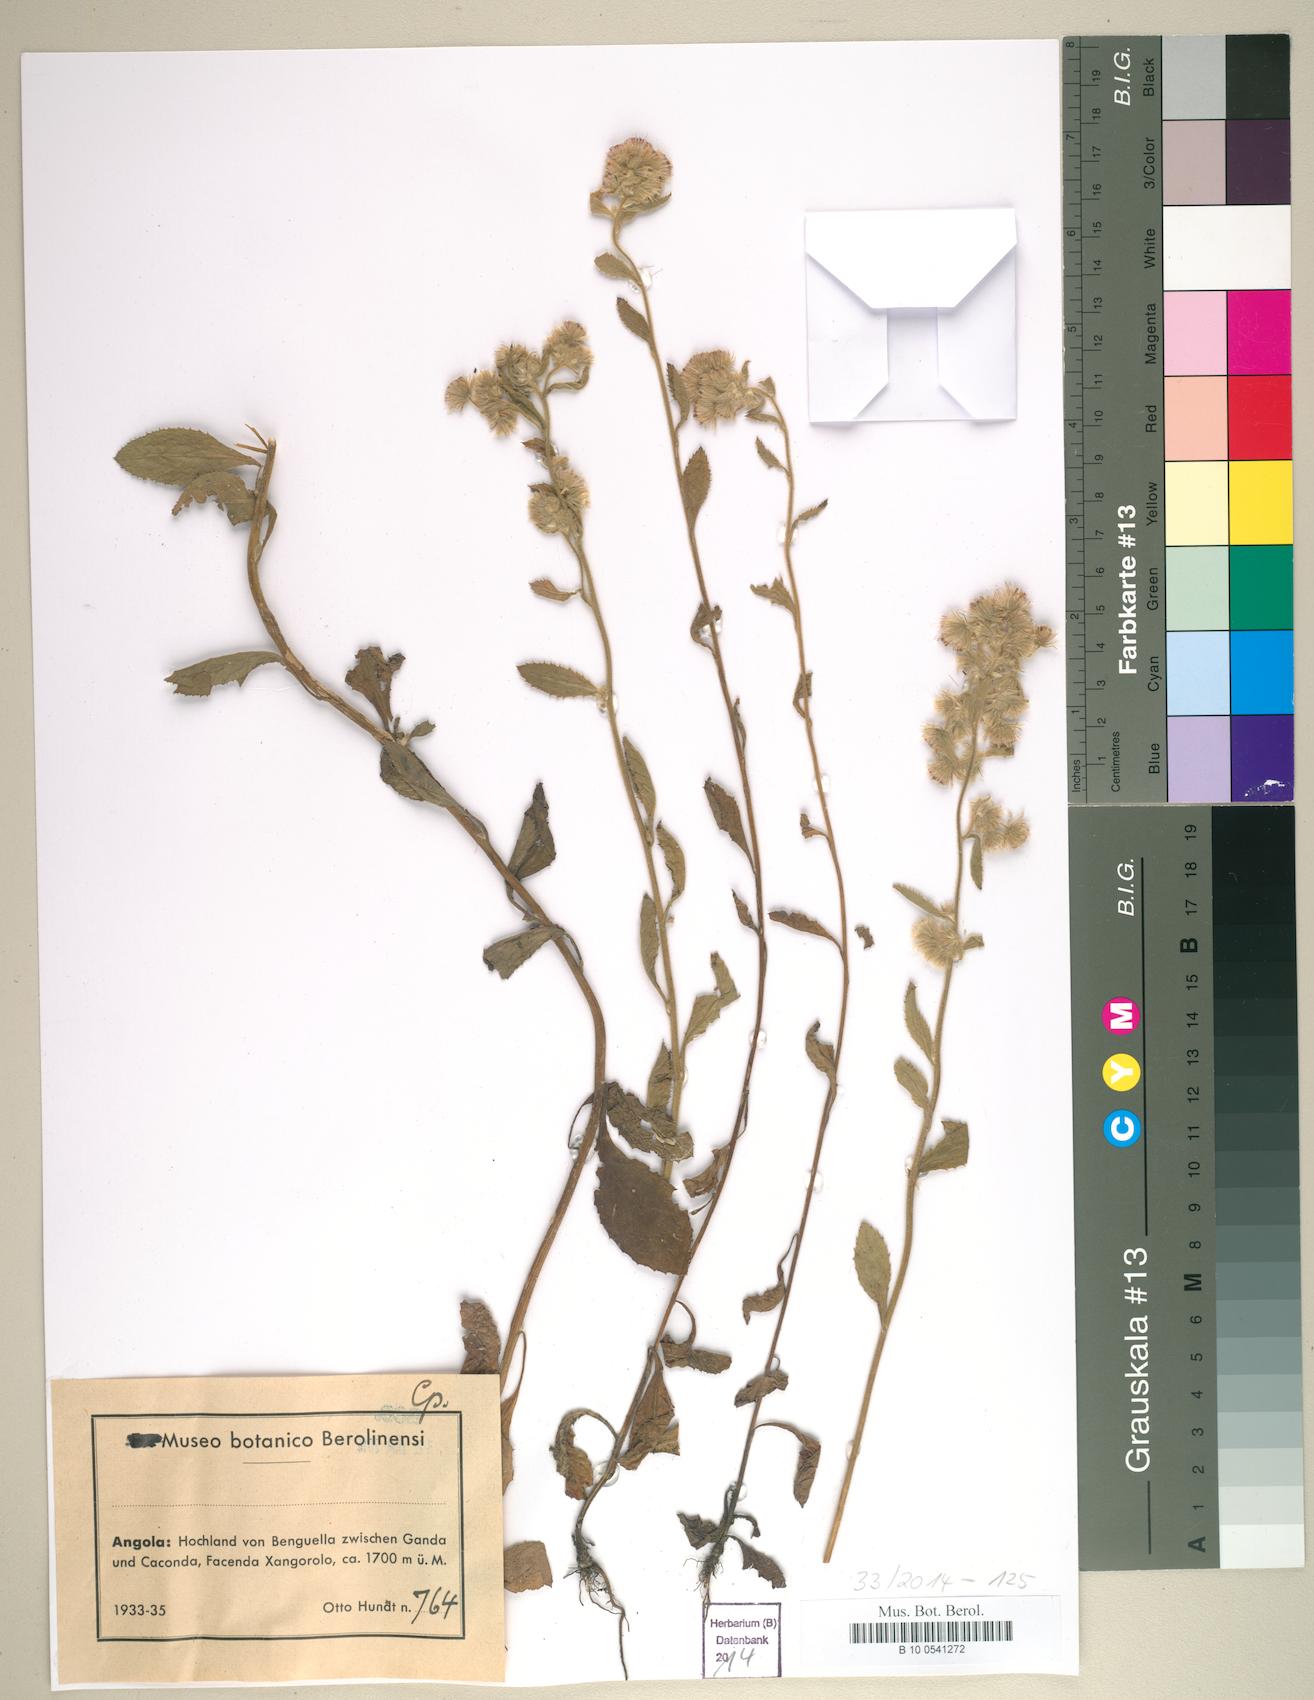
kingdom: Plantae
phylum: Tracheophyta
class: Magnoliopsida
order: Asterales
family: Asteraceae
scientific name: Asteraceae
